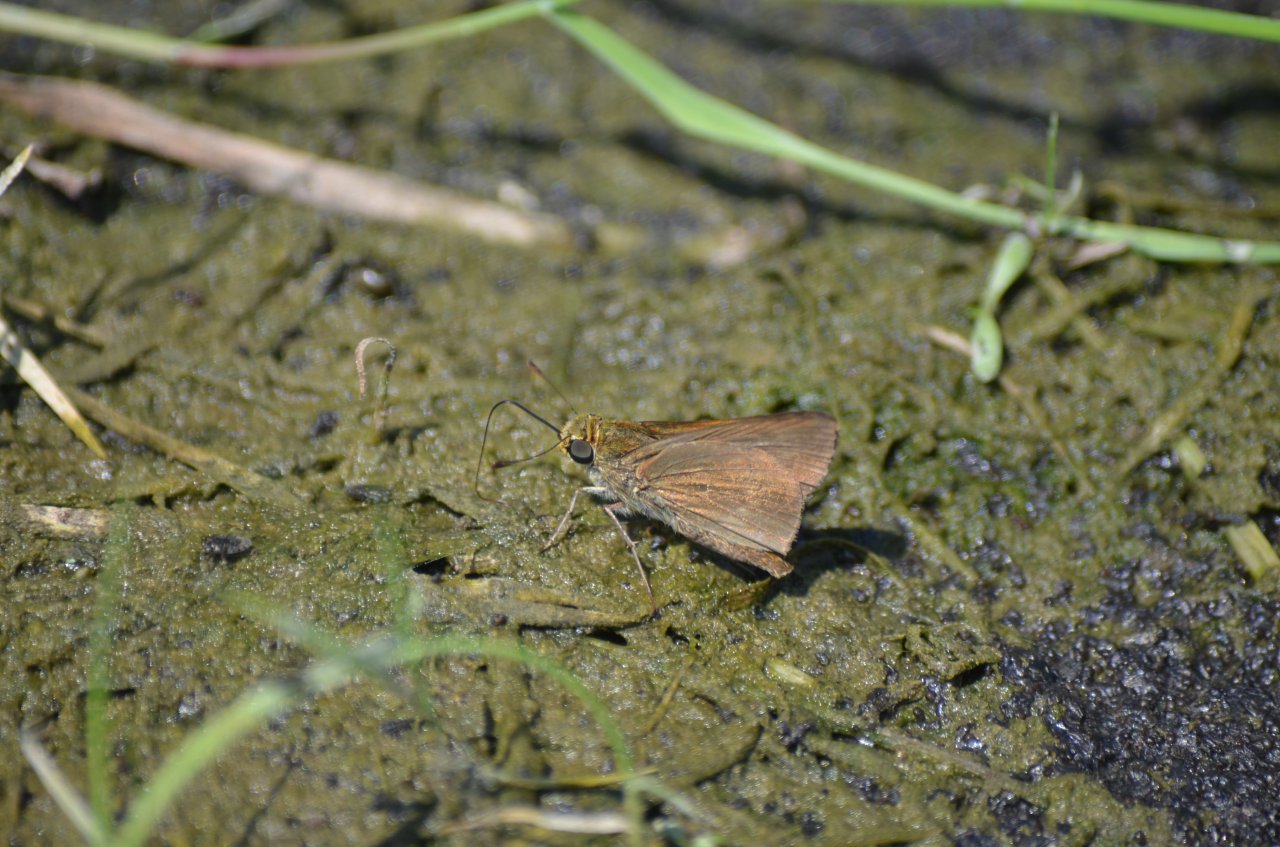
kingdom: Animalia
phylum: Arthropoda
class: Insecta
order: Lepidoptera
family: Hesperiidae
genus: Euphyes
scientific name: Euphyes vestris
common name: Dun Skipper
